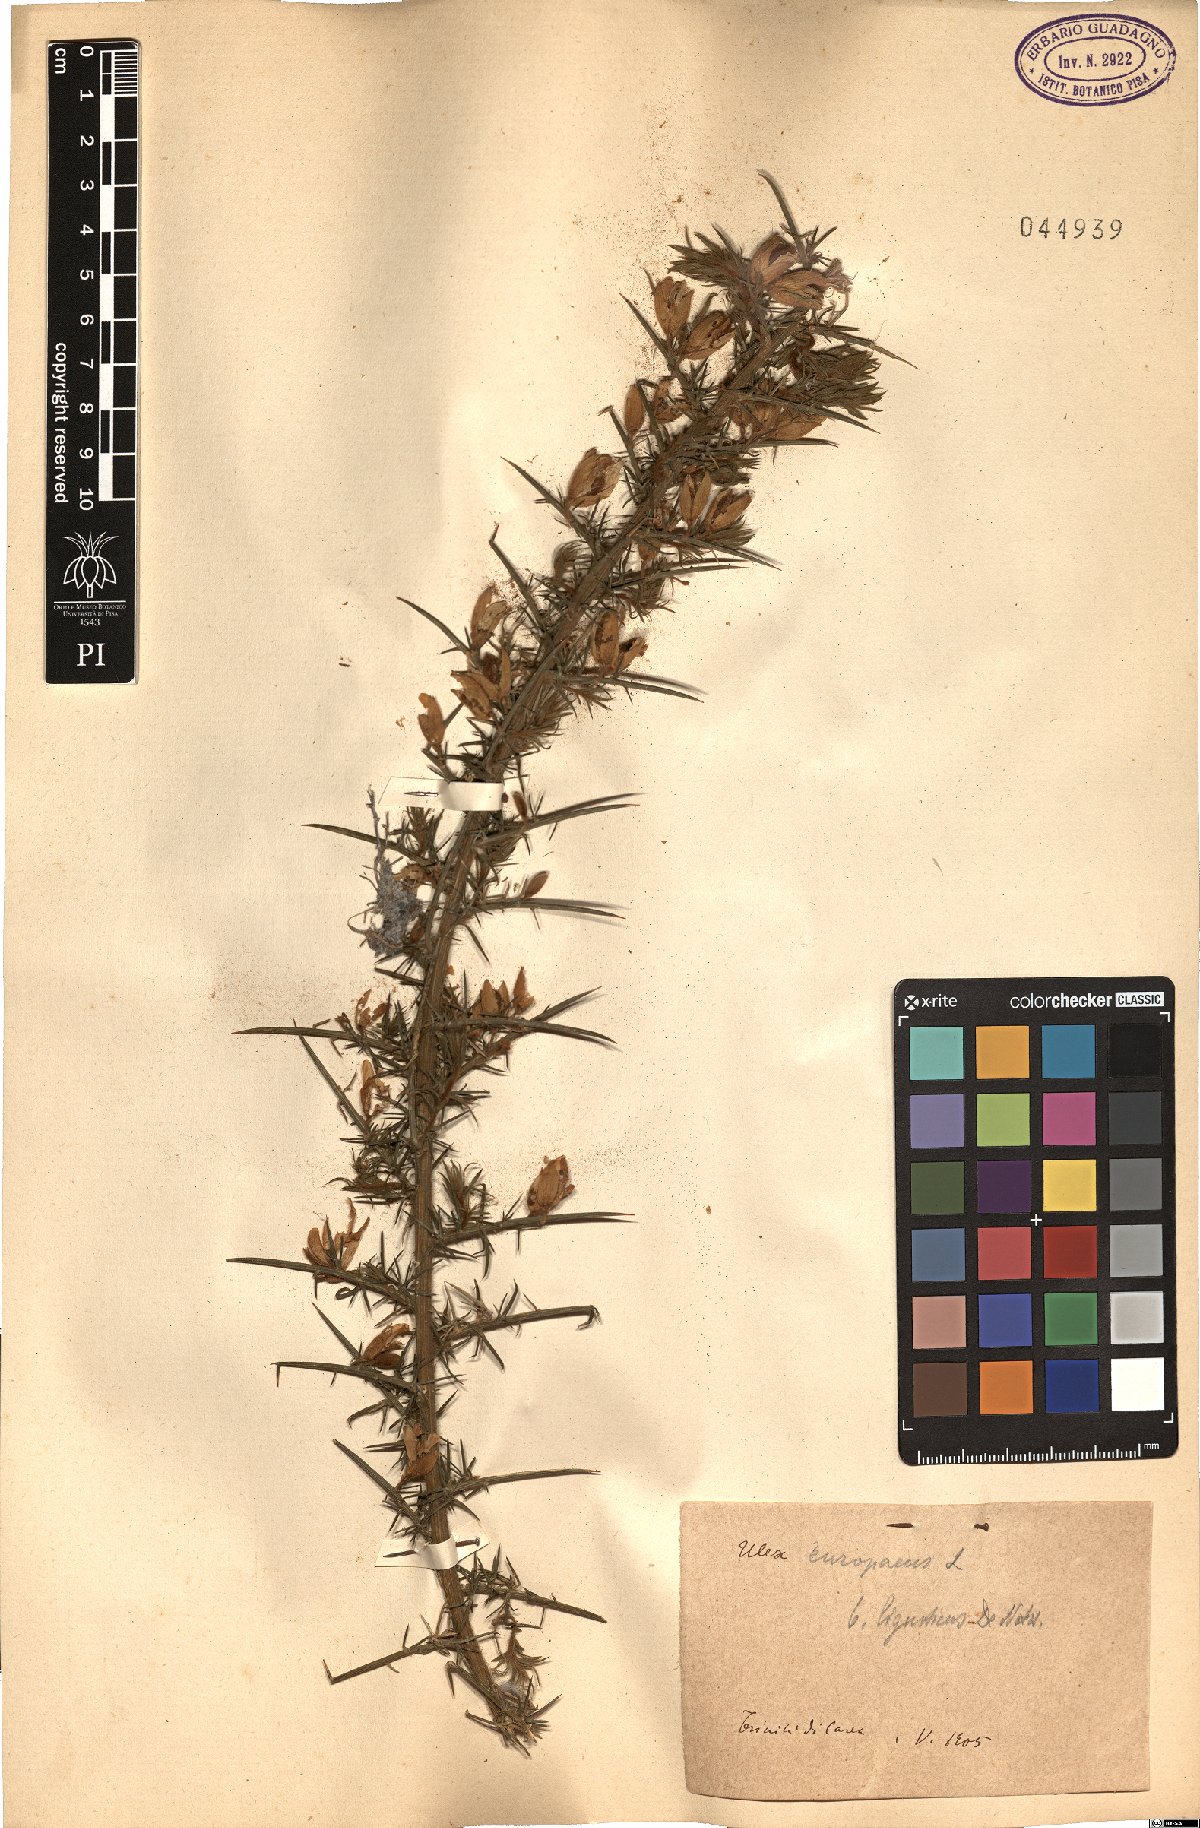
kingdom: Plantae
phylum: Tracheophyta
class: Magnoliopsida
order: Fabales
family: Fabaceae
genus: Ulex
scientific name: Ulex europaeus
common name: Common gorse
